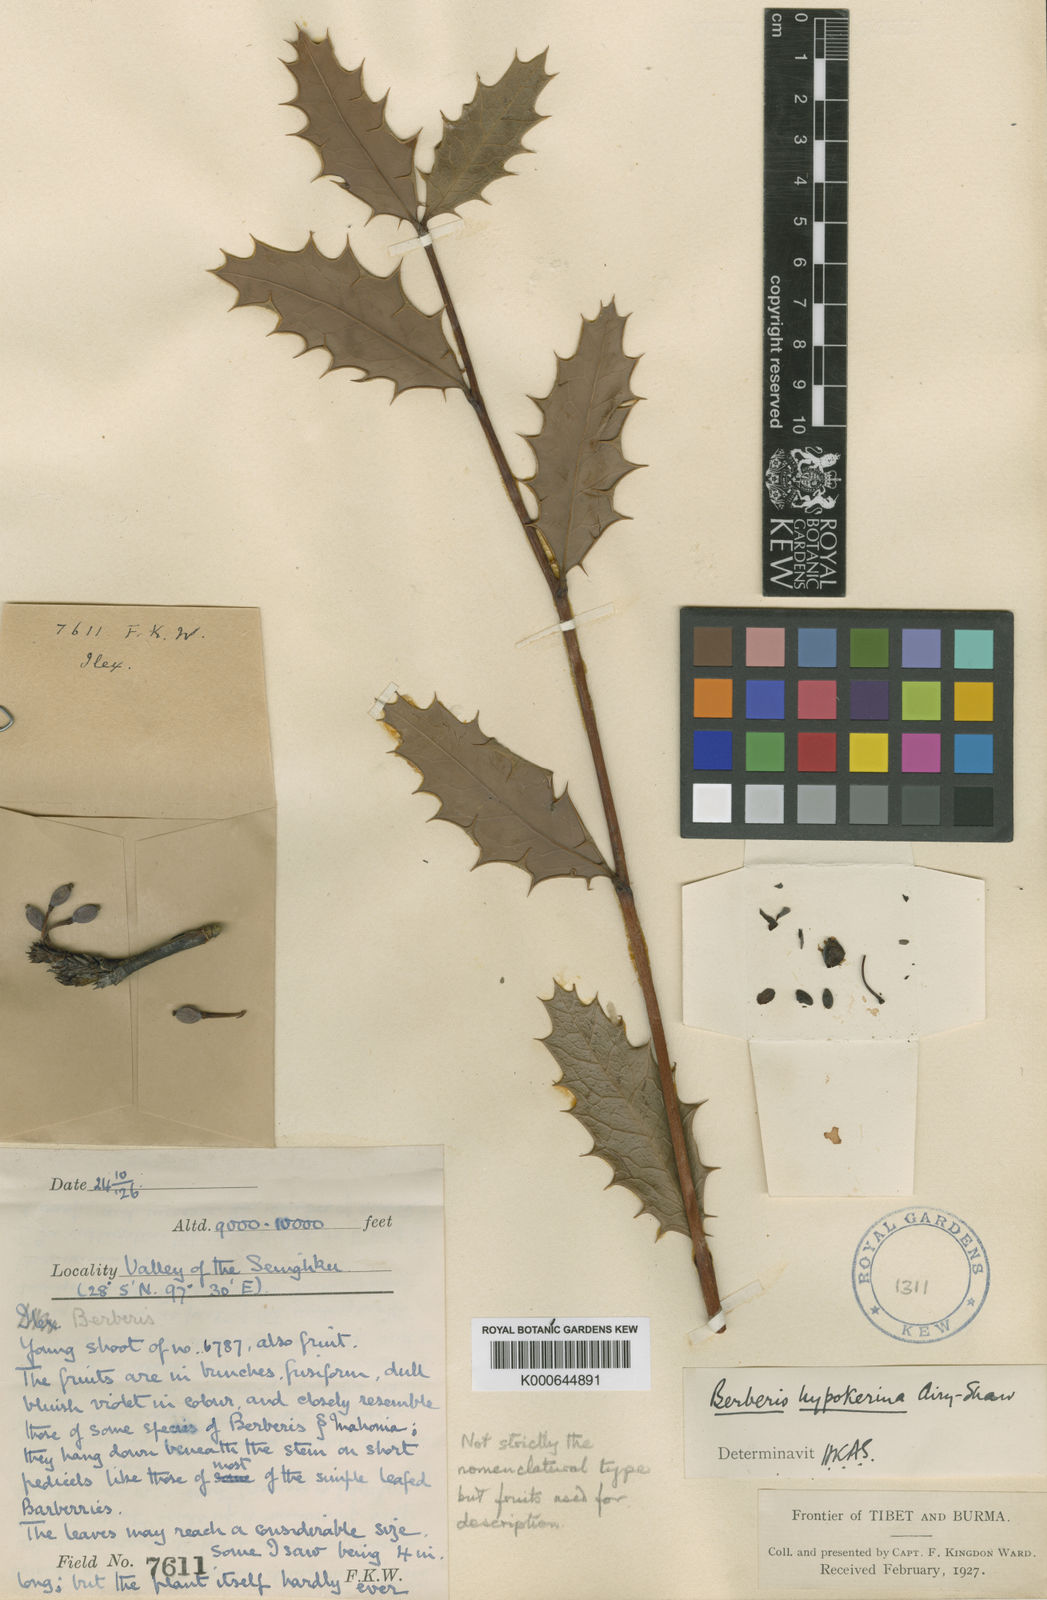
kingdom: Plantae
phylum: Tracheophyta
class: Magnoliopsida
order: Ranunculales
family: Berberidaceae
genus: Berberis
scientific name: Berberis hypokerina
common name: Violet-bead barberry
